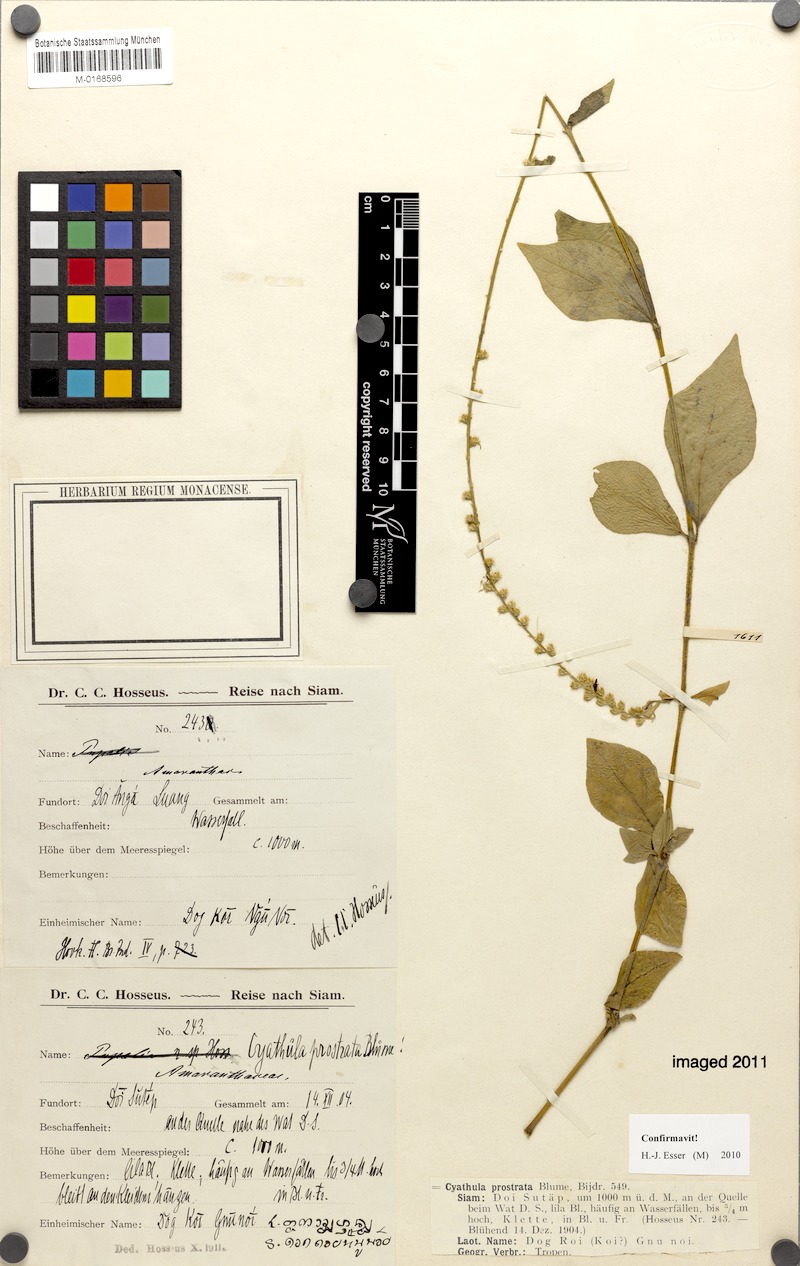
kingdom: Plantae
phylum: Tracheophyta
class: Magnoliopsida
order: Caryophyllales
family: Amaranthaceae
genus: Cyathula
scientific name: Cyathula prostrata
